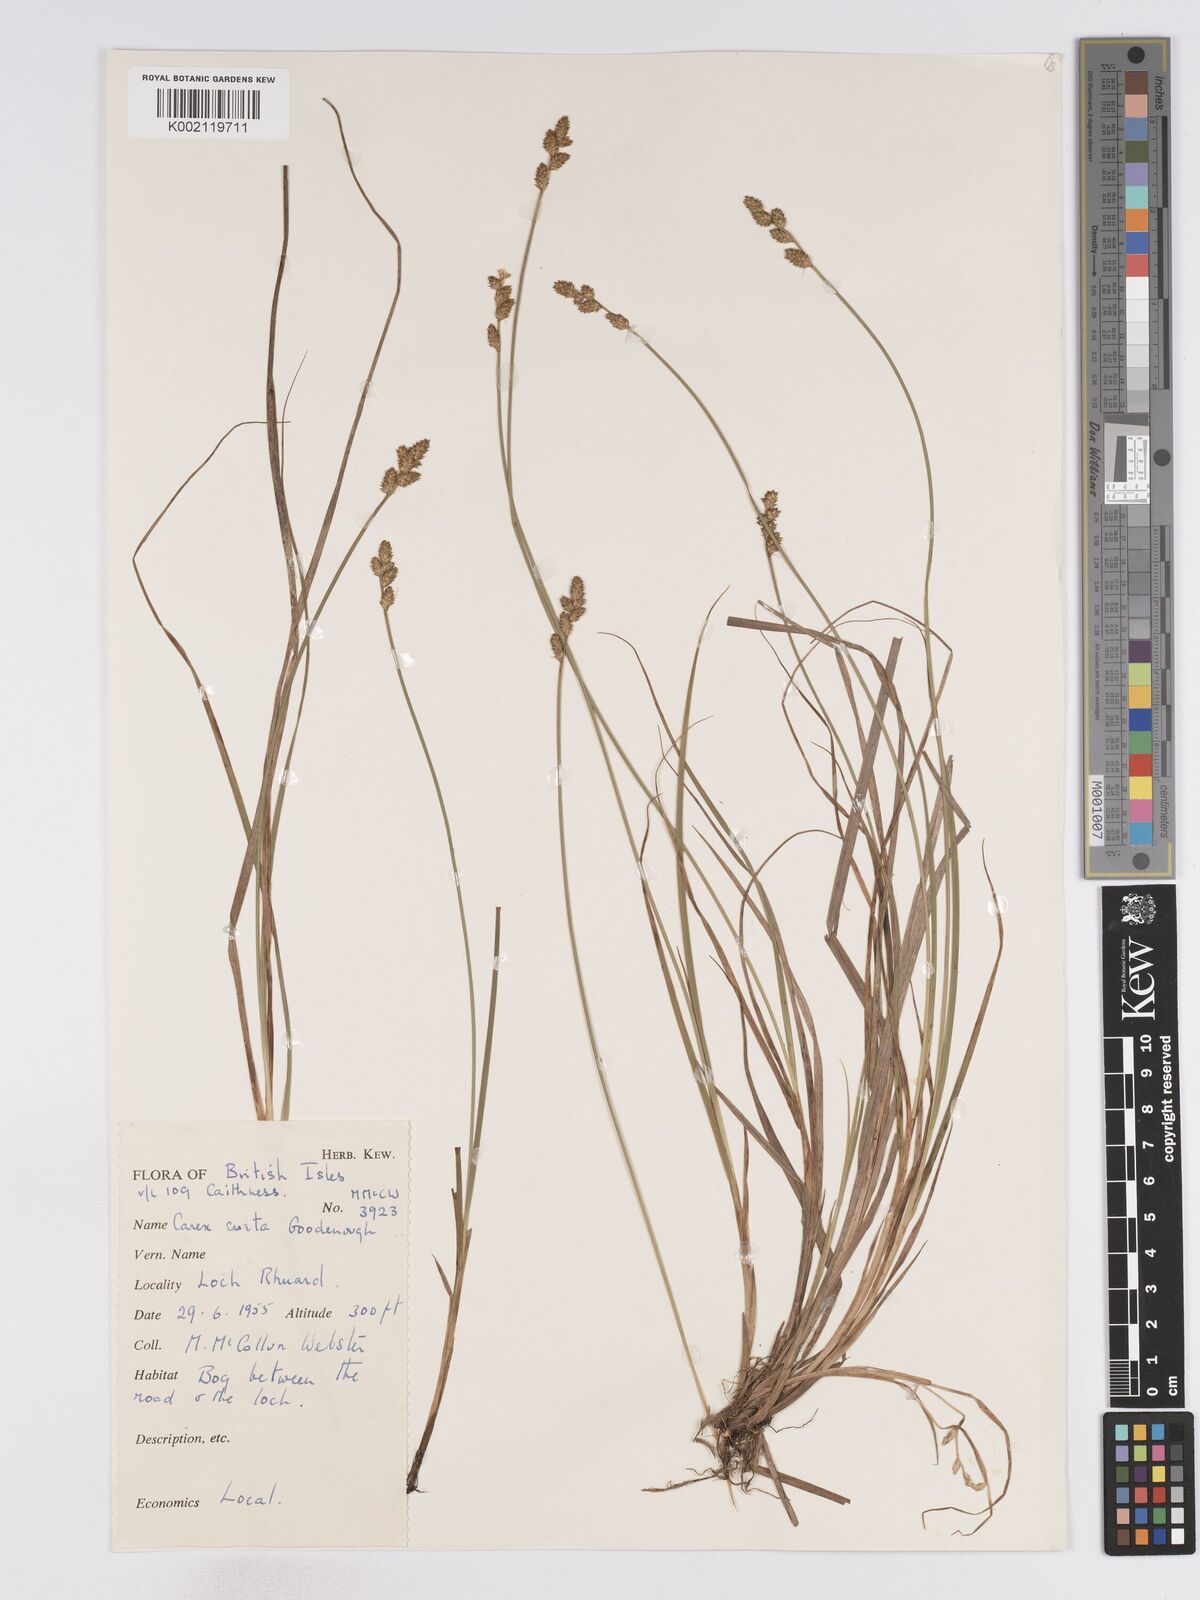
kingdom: Plantae
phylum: Tracheophyta
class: Liliopsida
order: Poales
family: Cyperaceae
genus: Carex
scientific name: Carex curta
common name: White sedge
